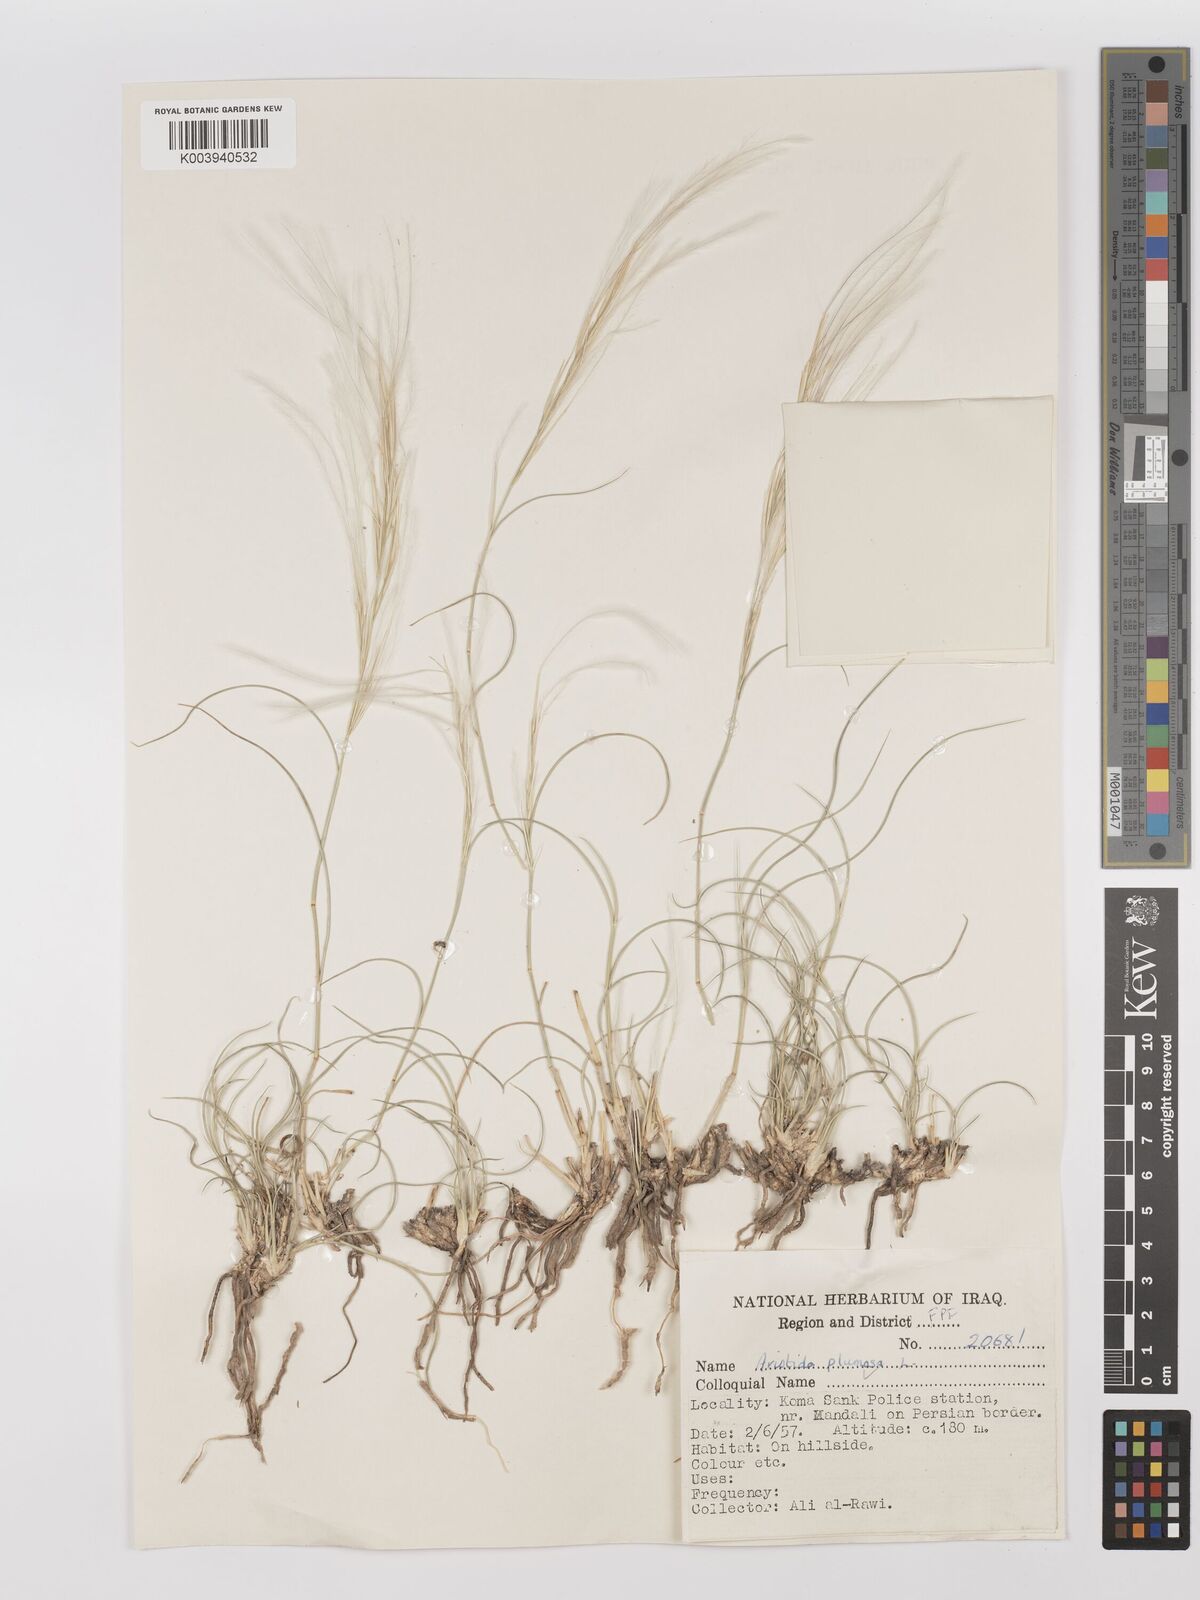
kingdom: Plantae
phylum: Tracheophyta
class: Liliopsida
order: Poales
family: Poaceae
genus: Stipagrostis
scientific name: Stipagrostis plumosa
